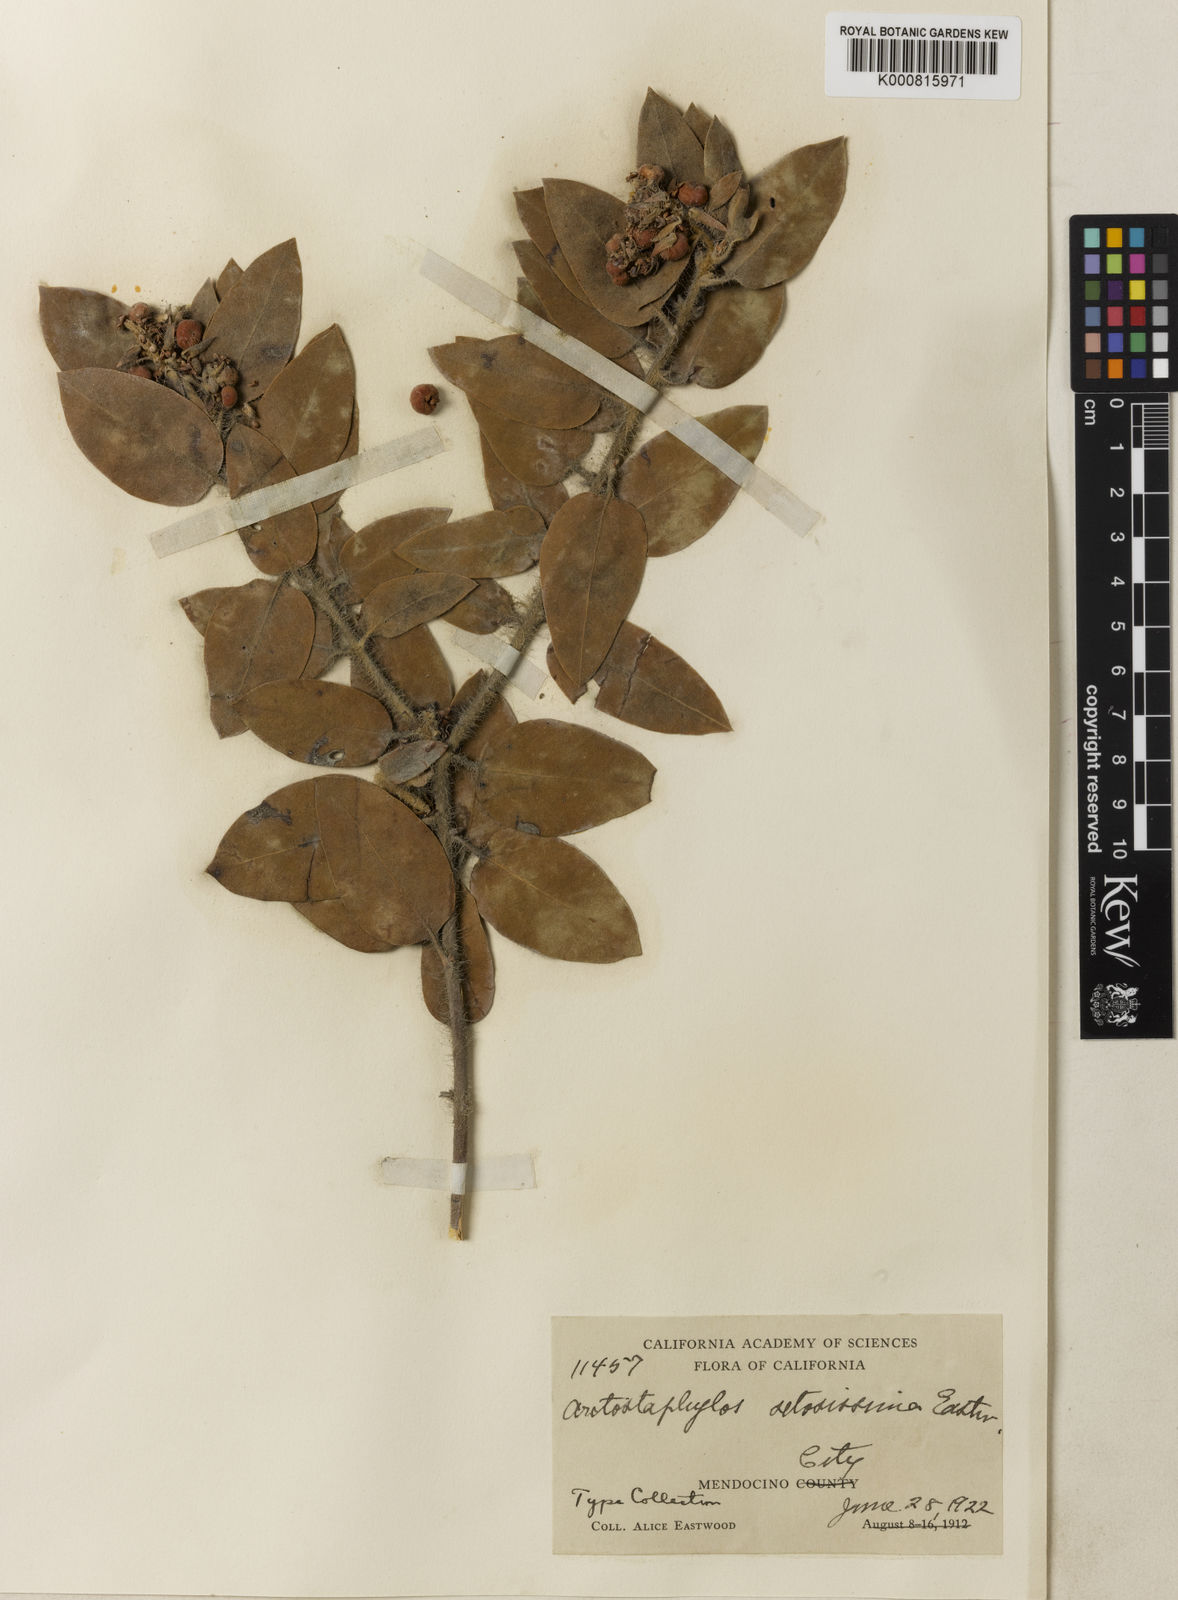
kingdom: Plantae
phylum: Tracheophyta
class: Magnoliopsida
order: Ericales
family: Ericaceae
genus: Arctostaphylos
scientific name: Arctostaphylos columbiana
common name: Bristly bearberry
